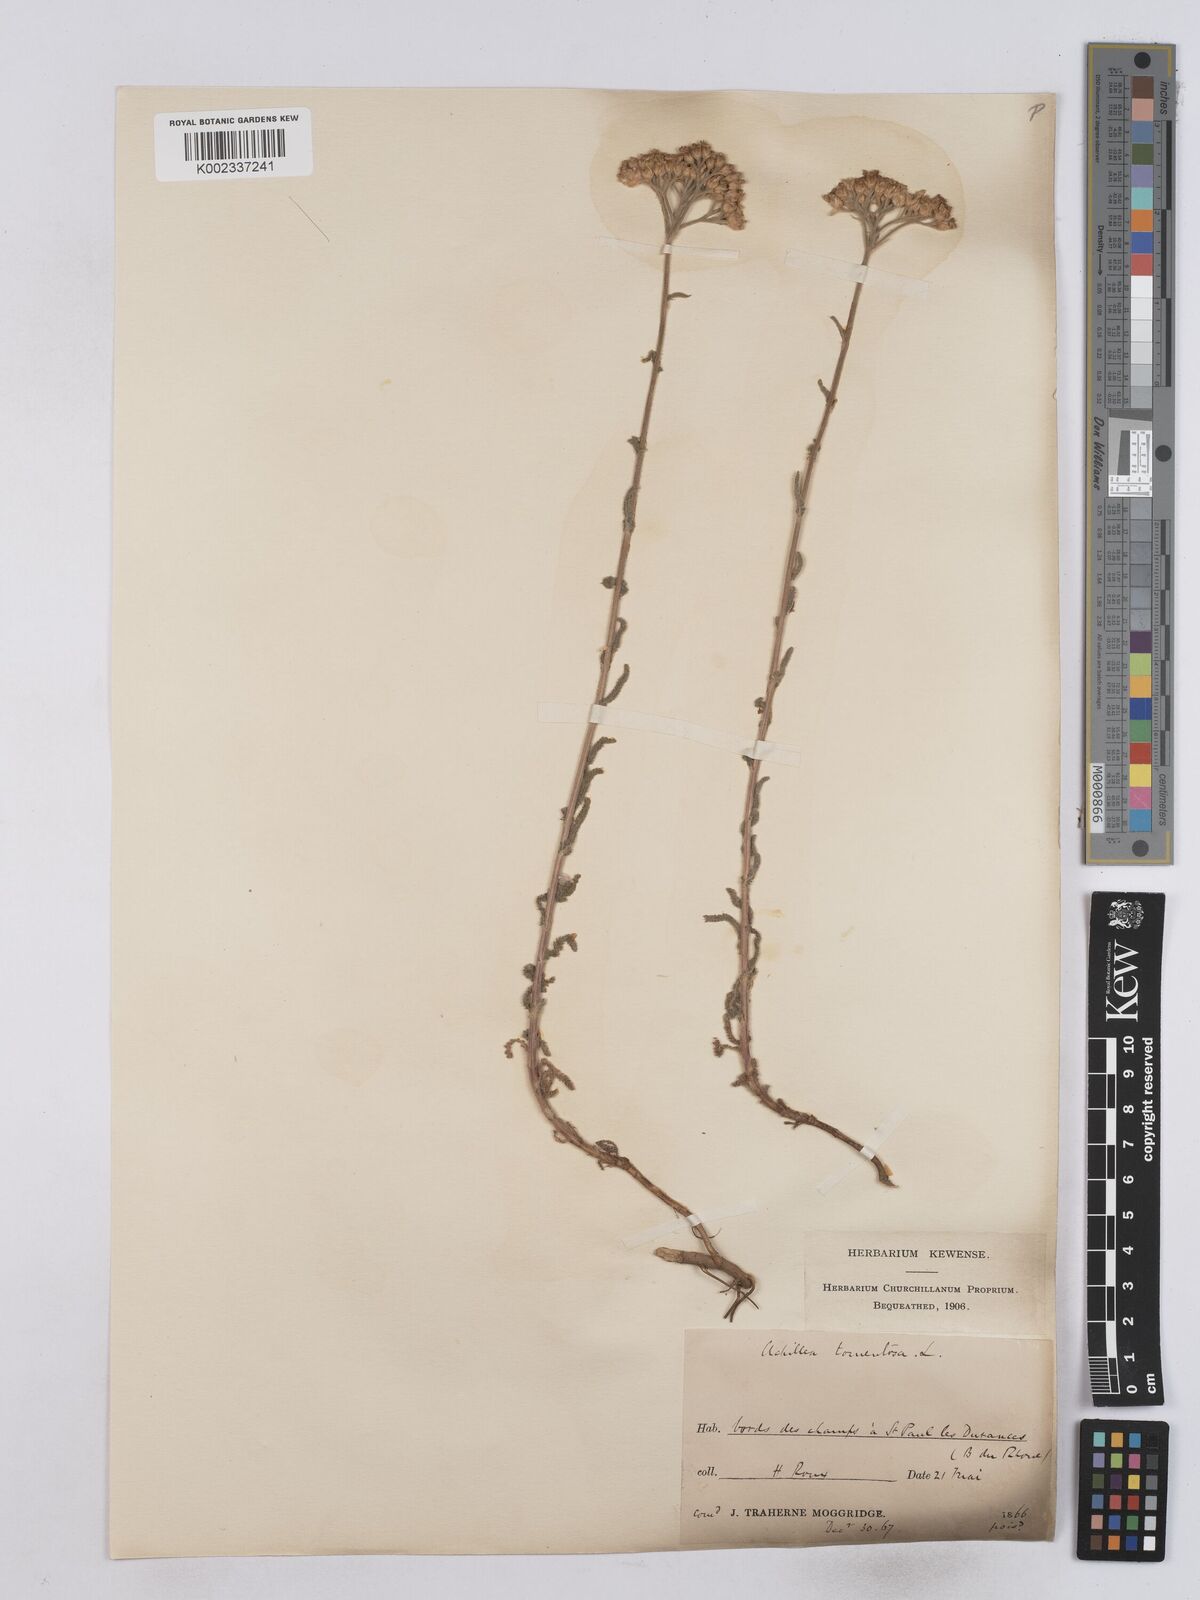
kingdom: Plantae
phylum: Tracheophyta
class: Magnoliopsida
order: Asterales
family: Asteraceae
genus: Achillea
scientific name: Achillea tomentosa
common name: Yellow milfoil
